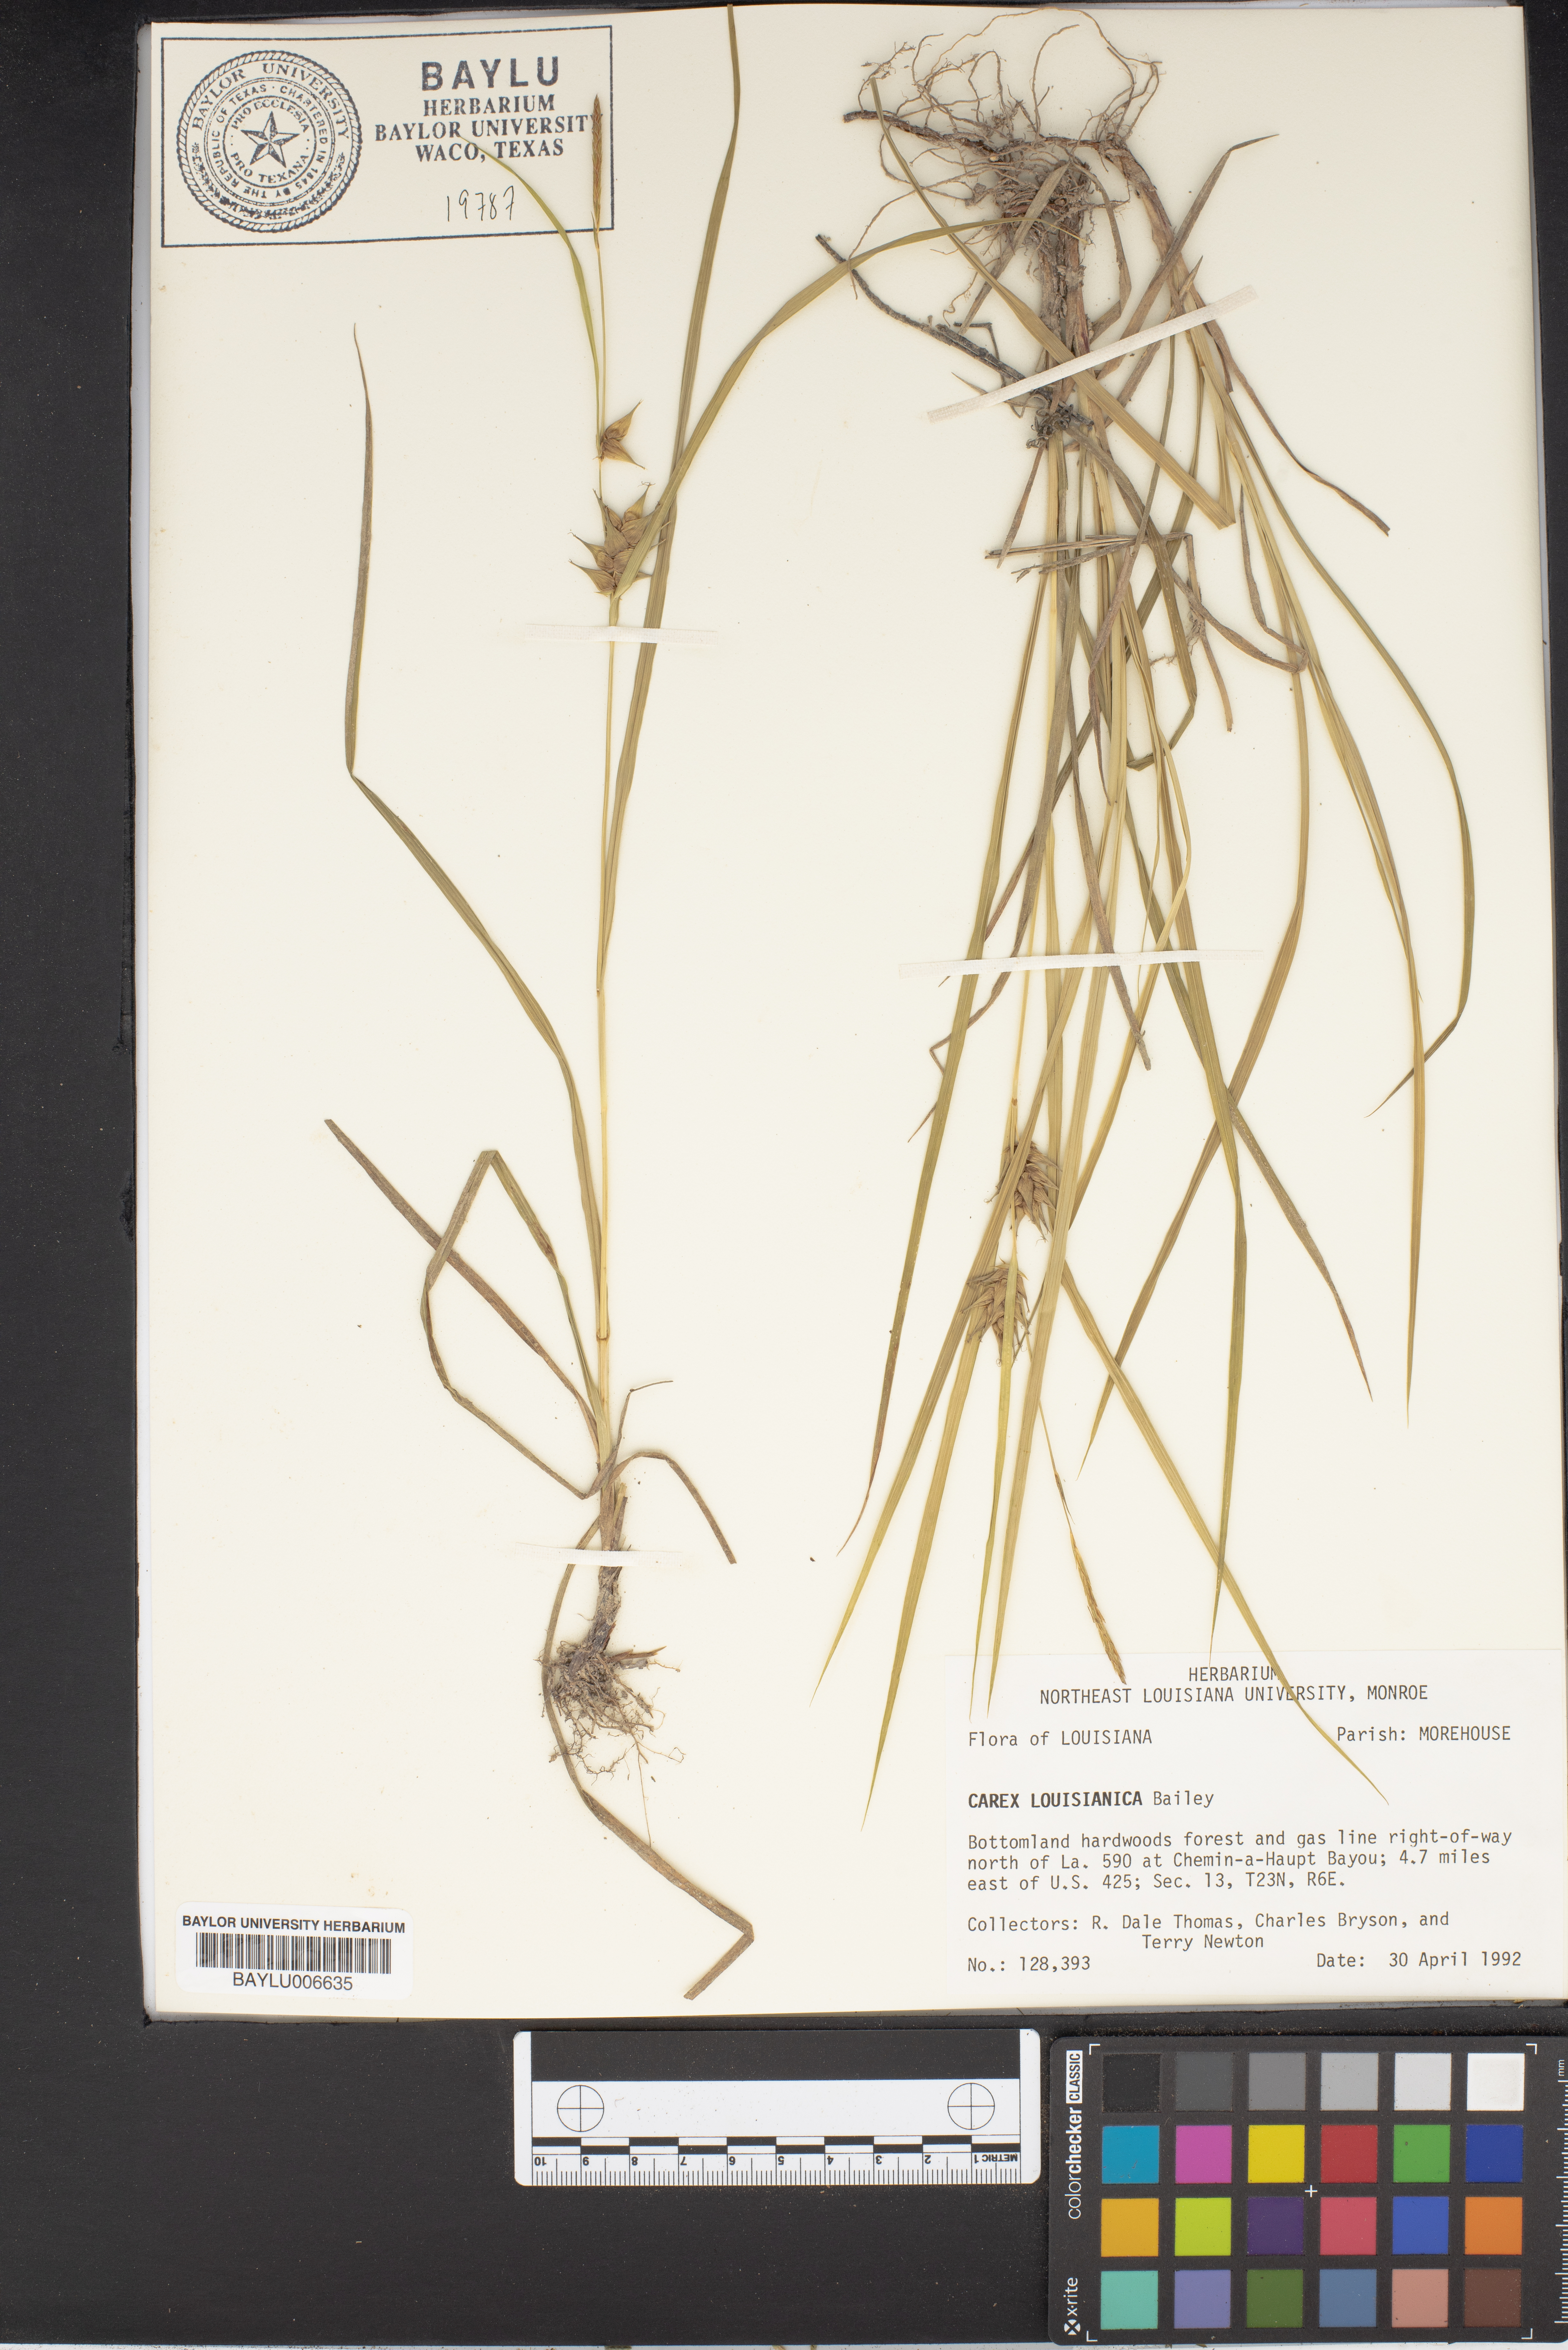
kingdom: Plantae
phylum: Tracheophyta
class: Liliopsida
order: Poales
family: Cyperaceae
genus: Carex
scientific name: Carex louisianica
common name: Louisiana sedge
